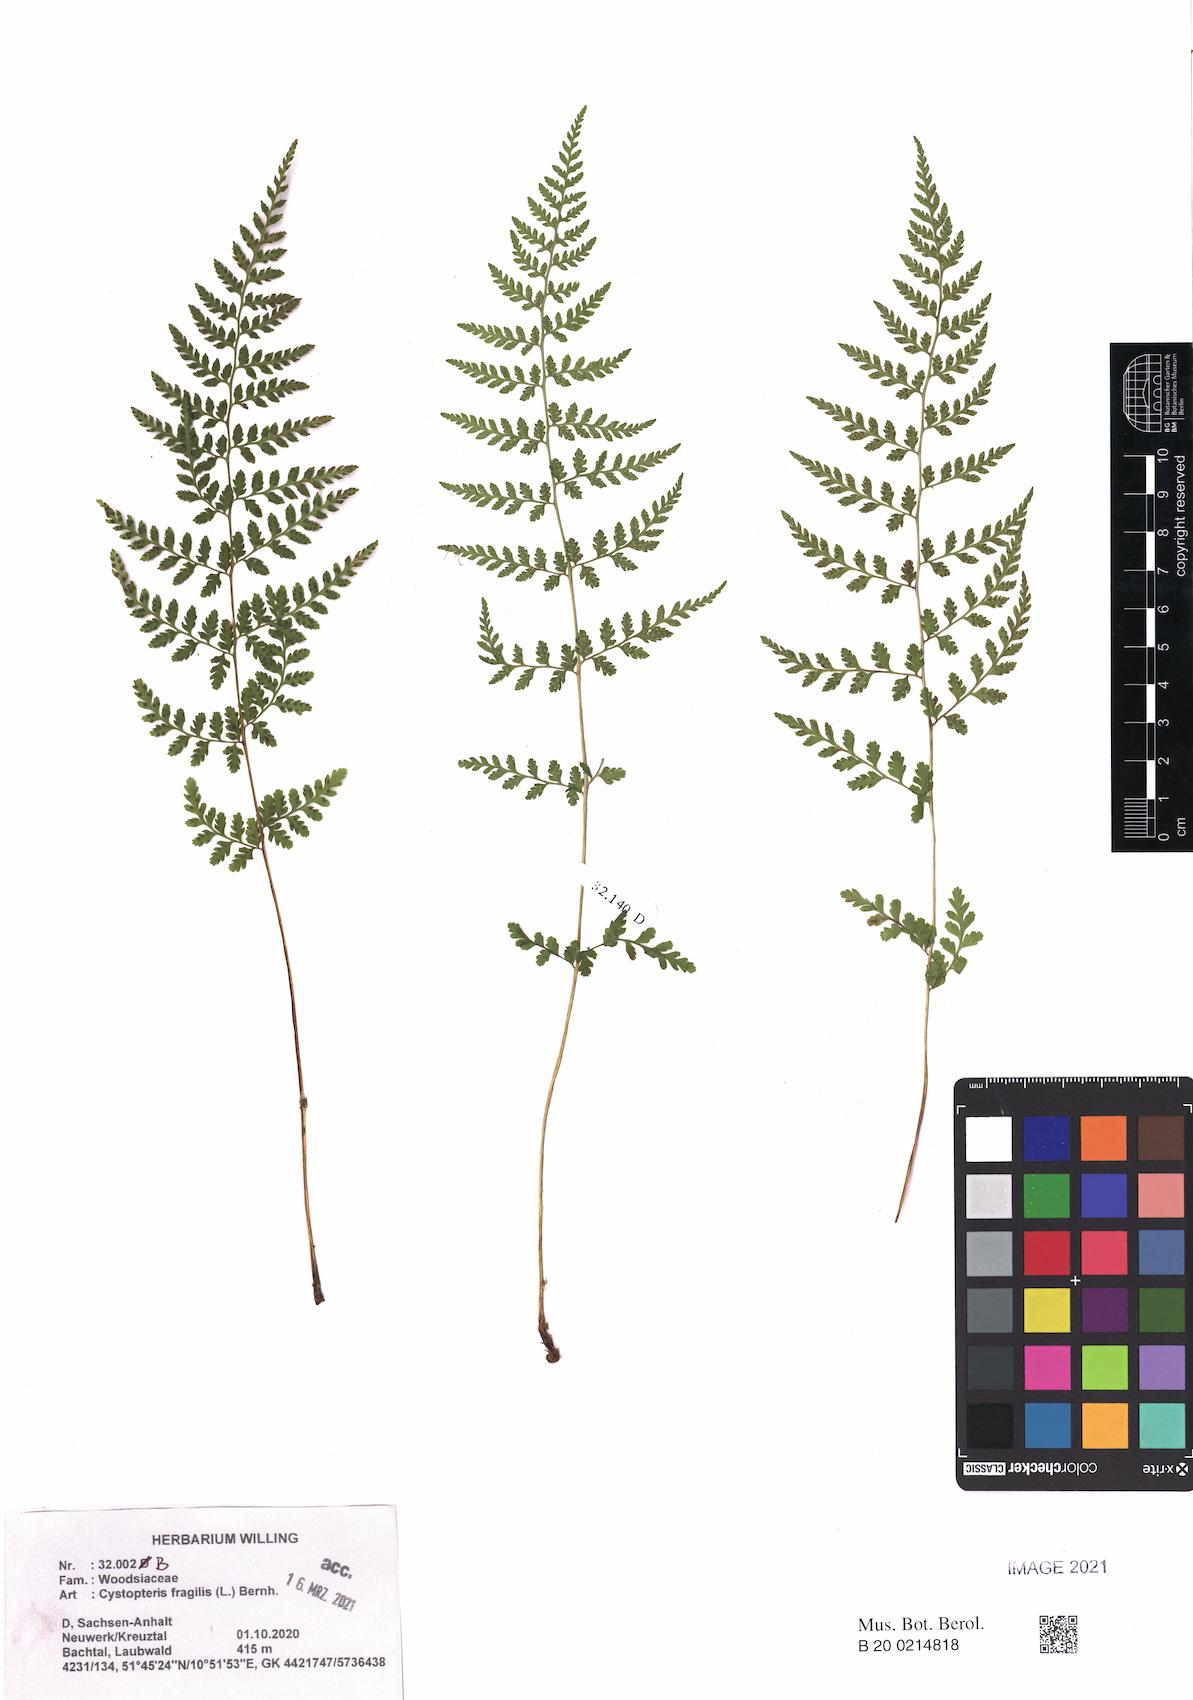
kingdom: Plantae
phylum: Tracheophyta
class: Polypodiopsida
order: Polypodiales
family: Cystopteridaceae
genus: Cystopteris
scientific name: Cystopteris fragilis
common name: Brittle bladder fern
